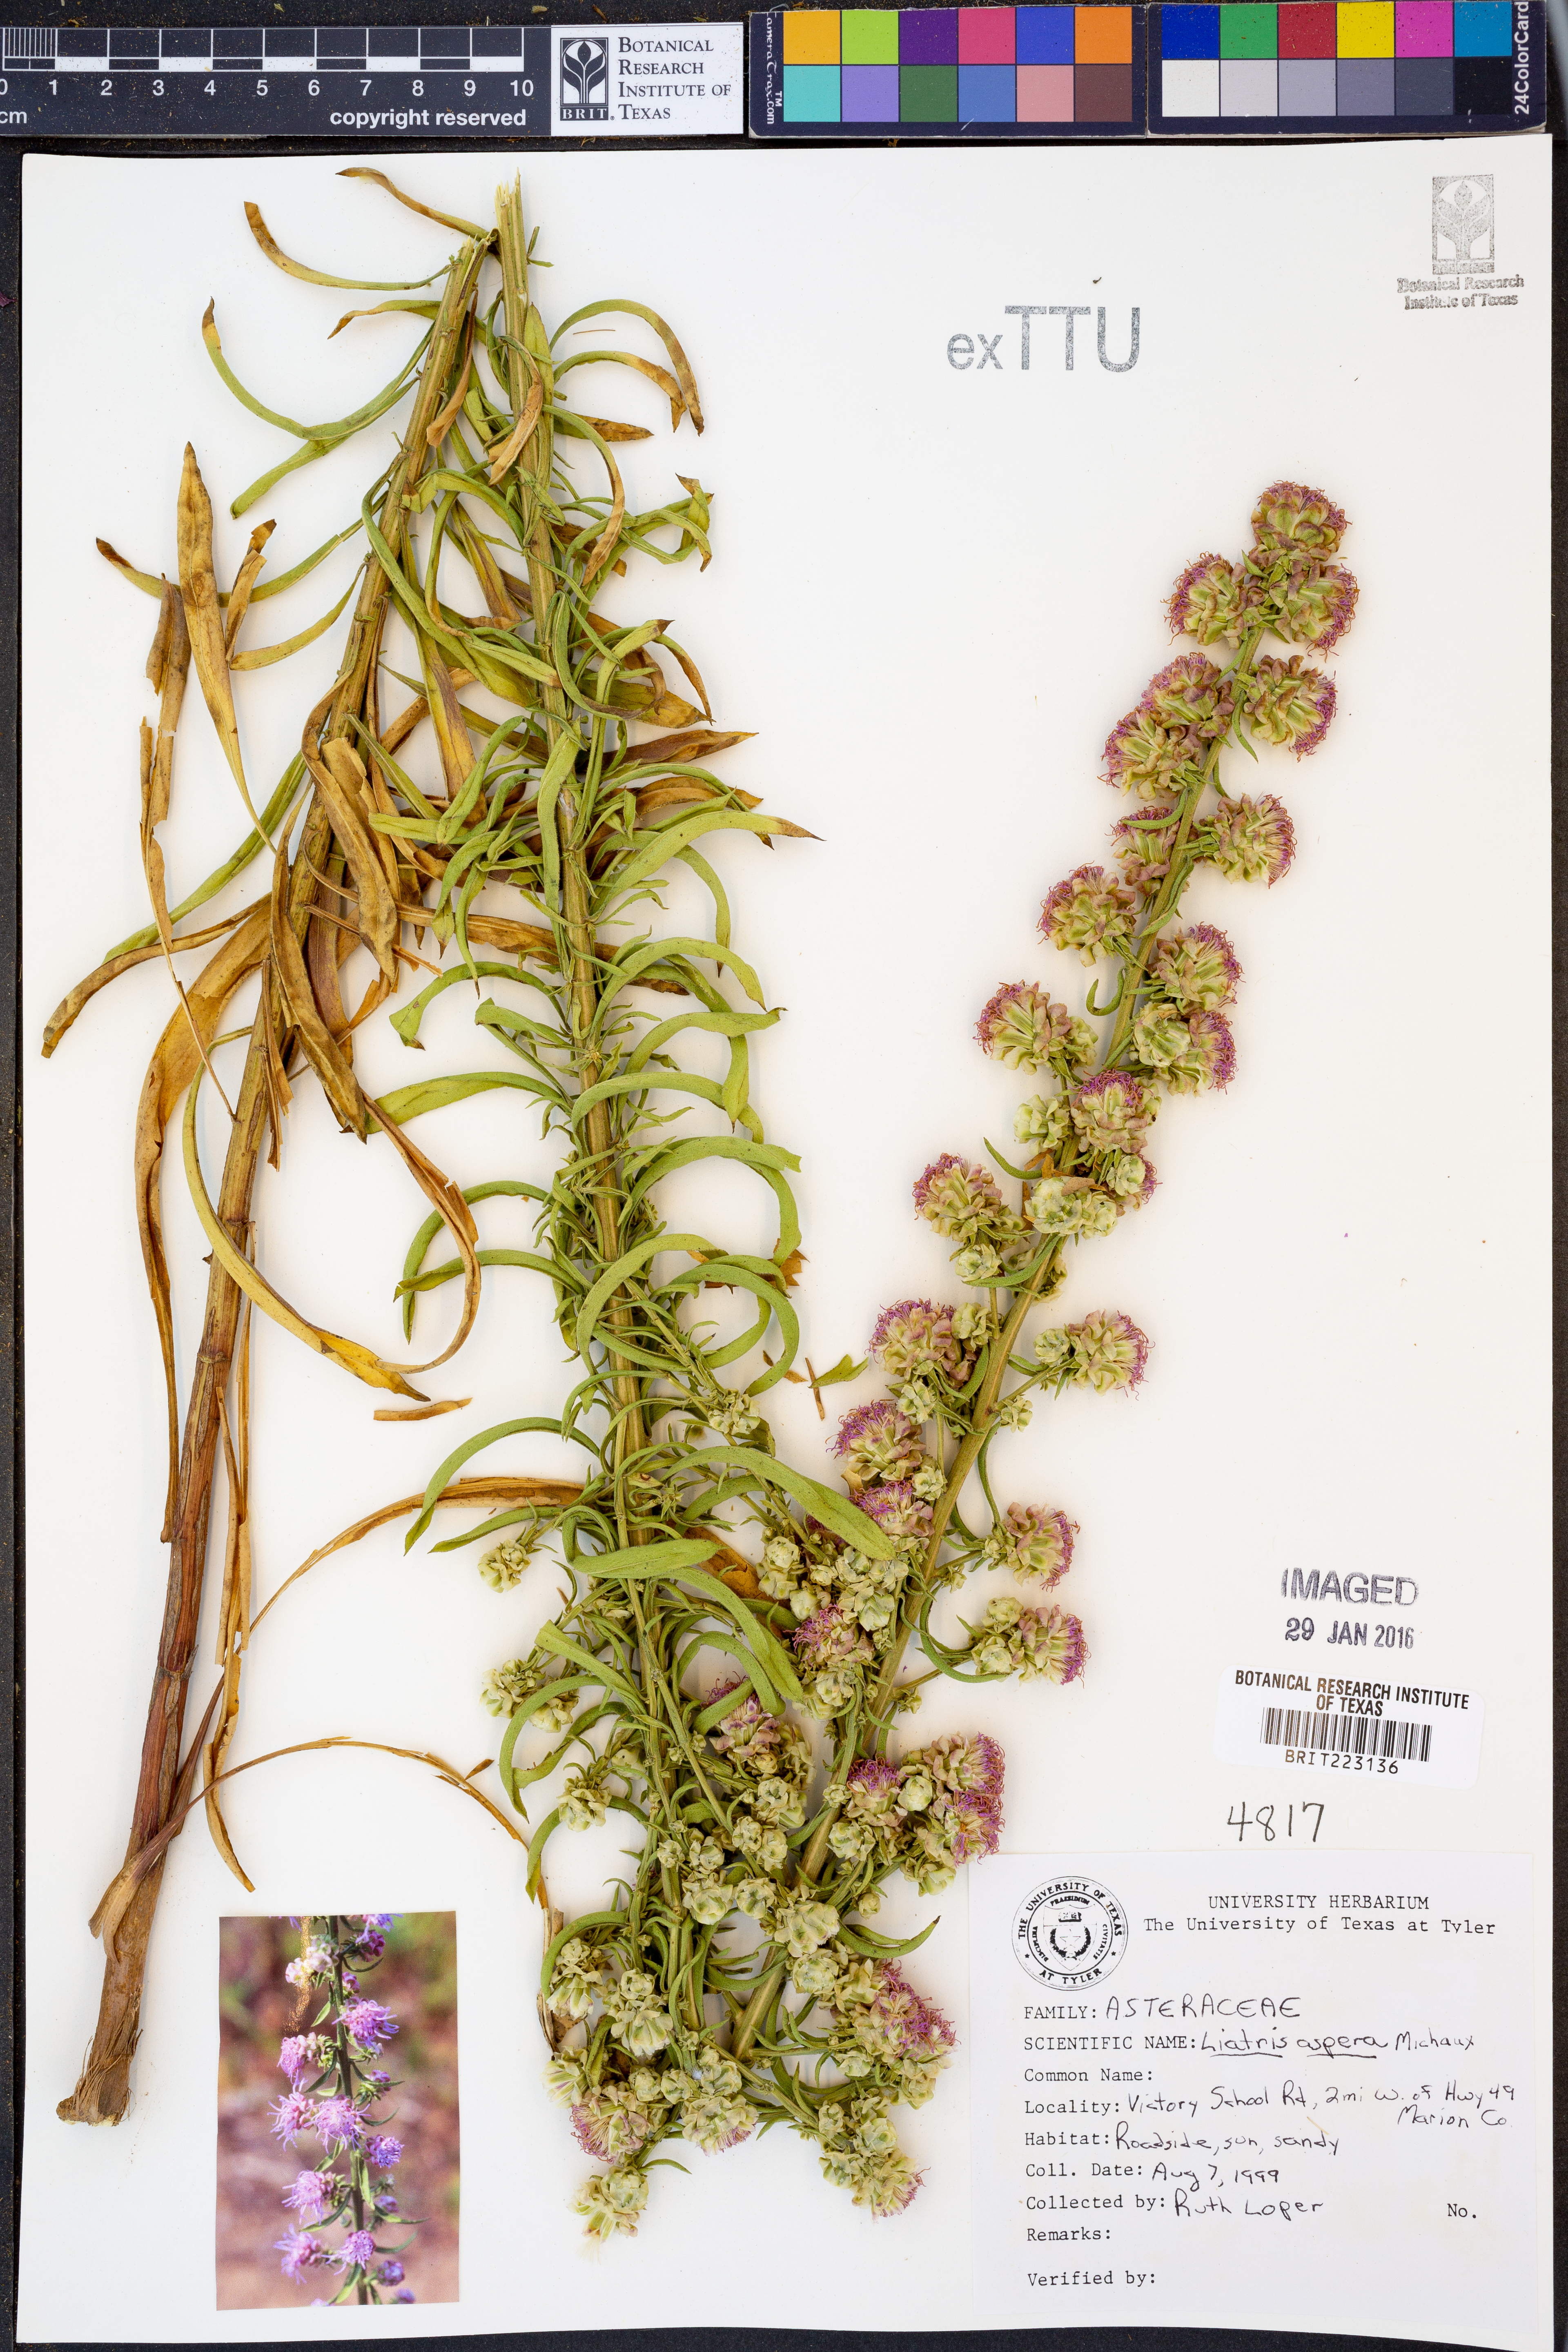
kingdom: Plantae
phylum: Tracheophyta
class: Magnoliopsida
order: Asterales
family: Asteraceae
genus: Liatris
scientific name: Liatris aspera
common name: Lacerate blazing-star
